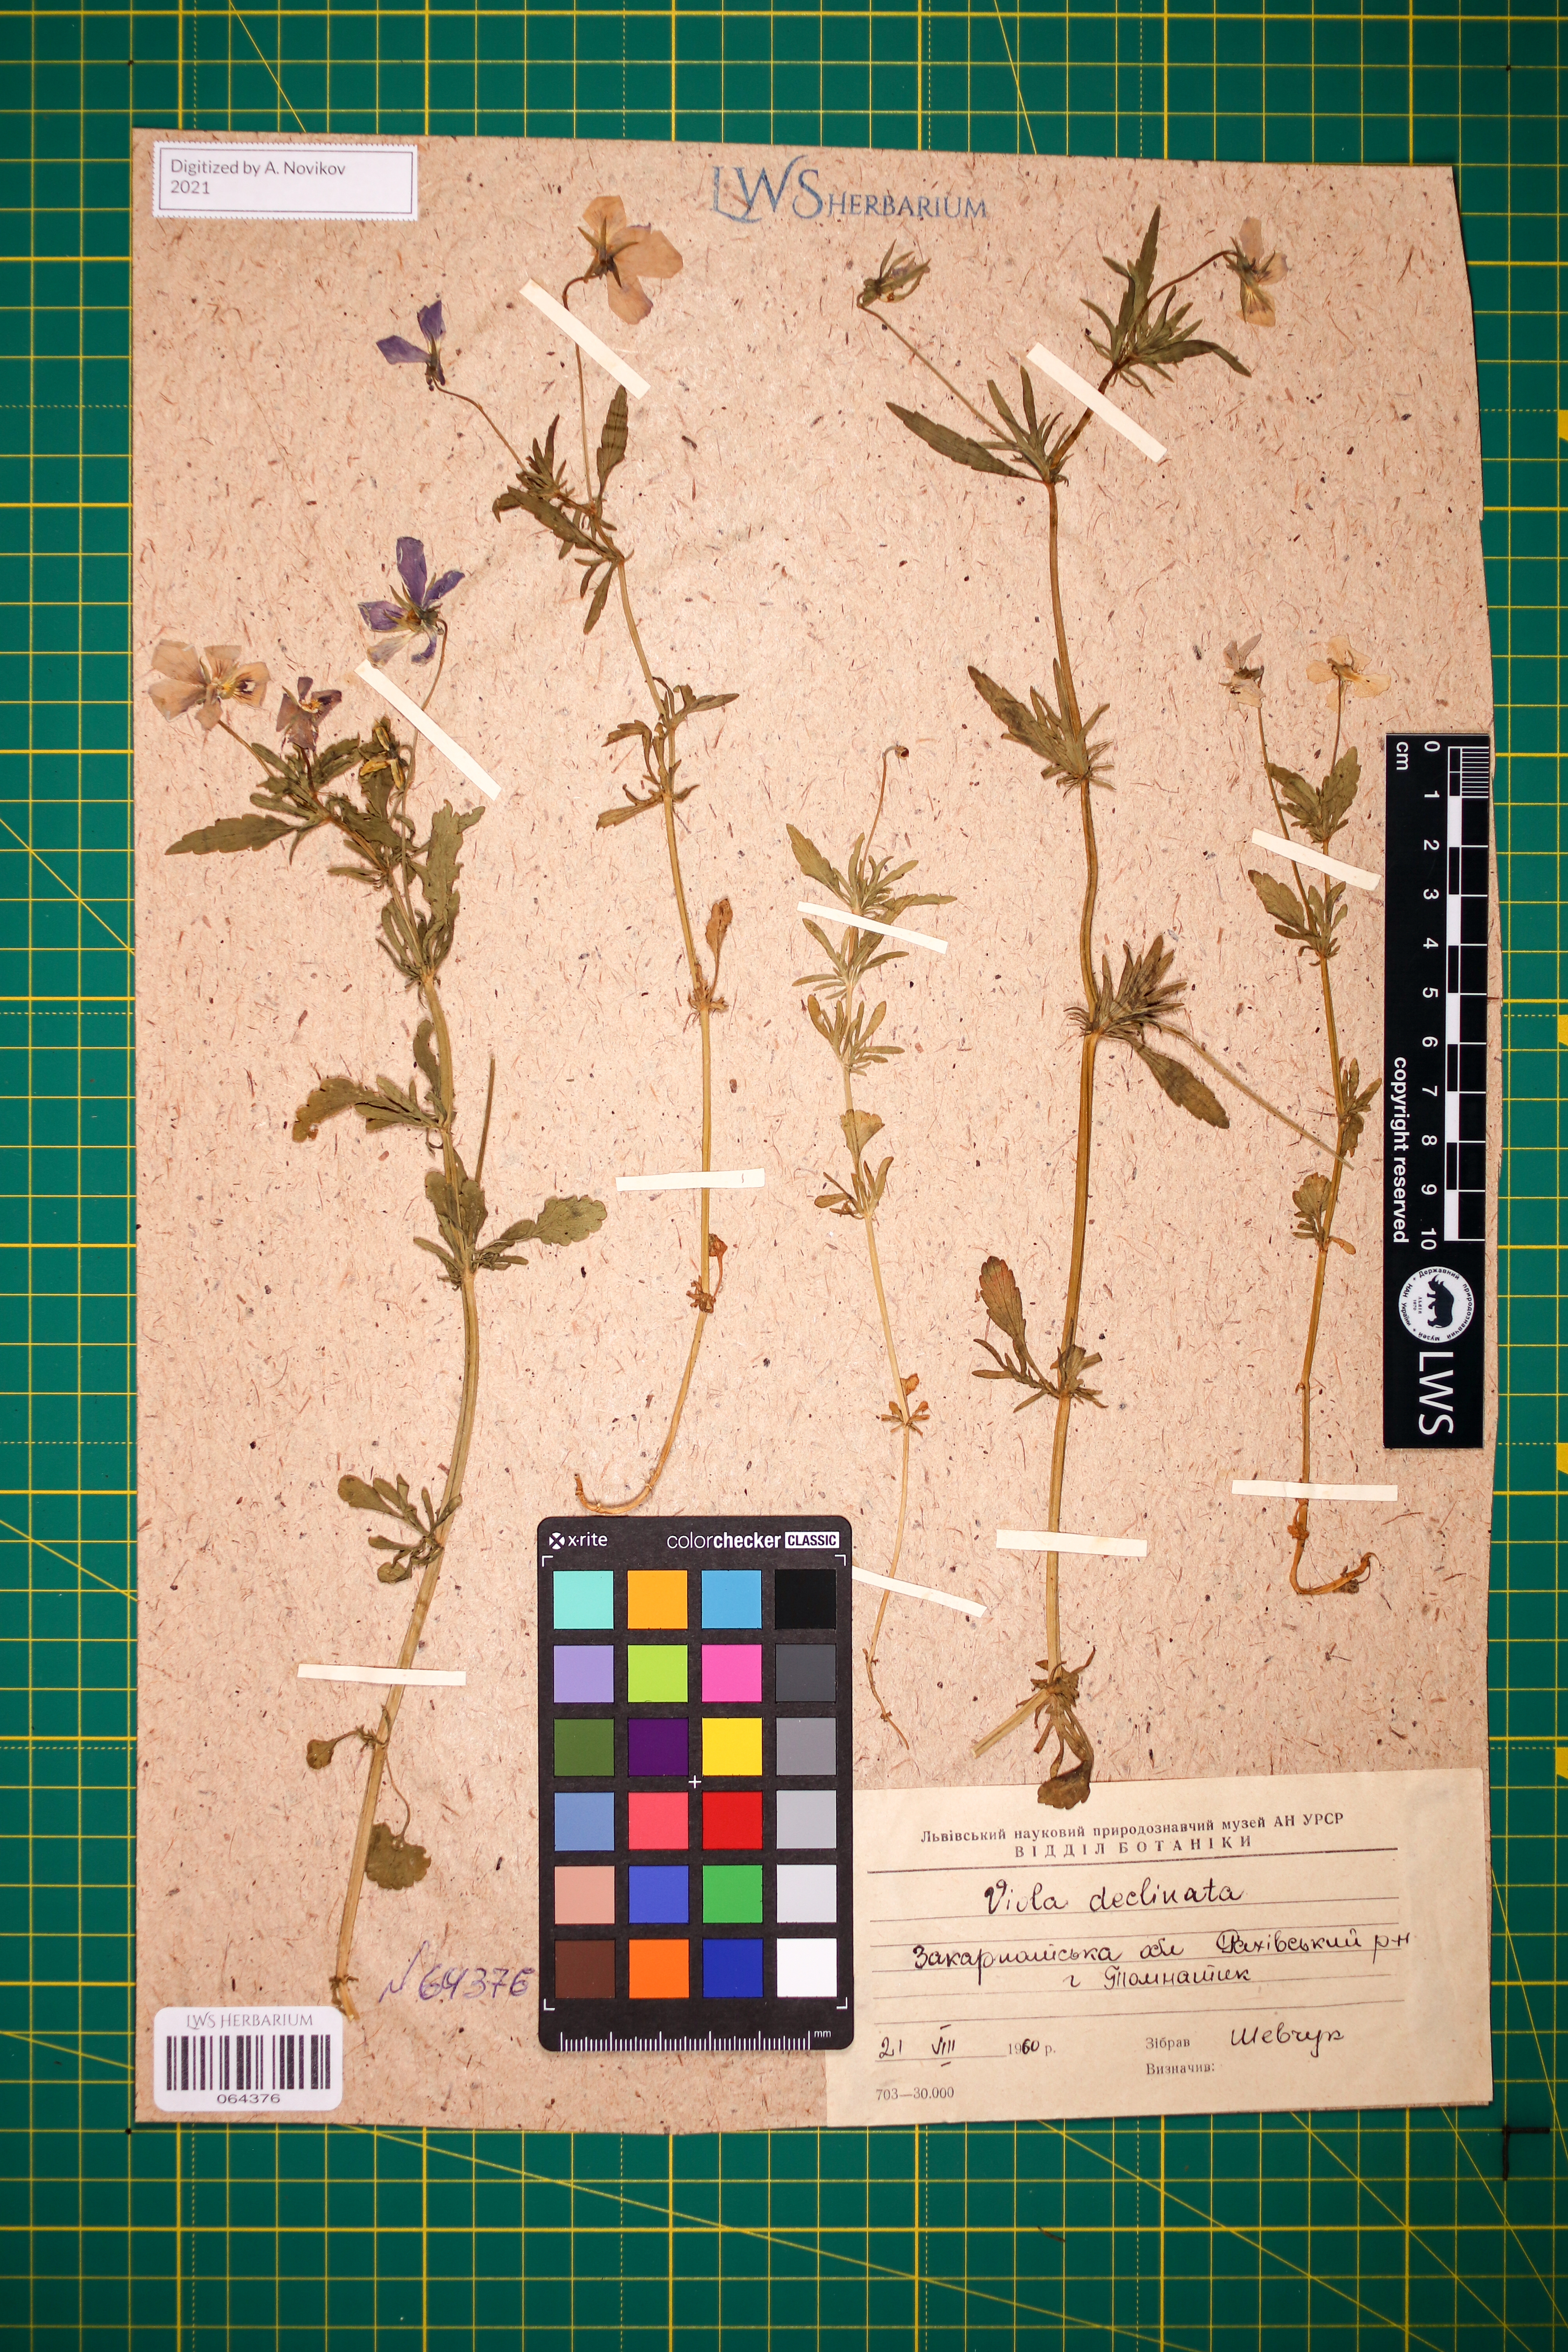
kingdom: Plantae
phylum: Tracheophyta
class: Magnoliopsida
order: Malpighiales
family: Violaceae
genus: Viola
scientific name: Viola declinata
